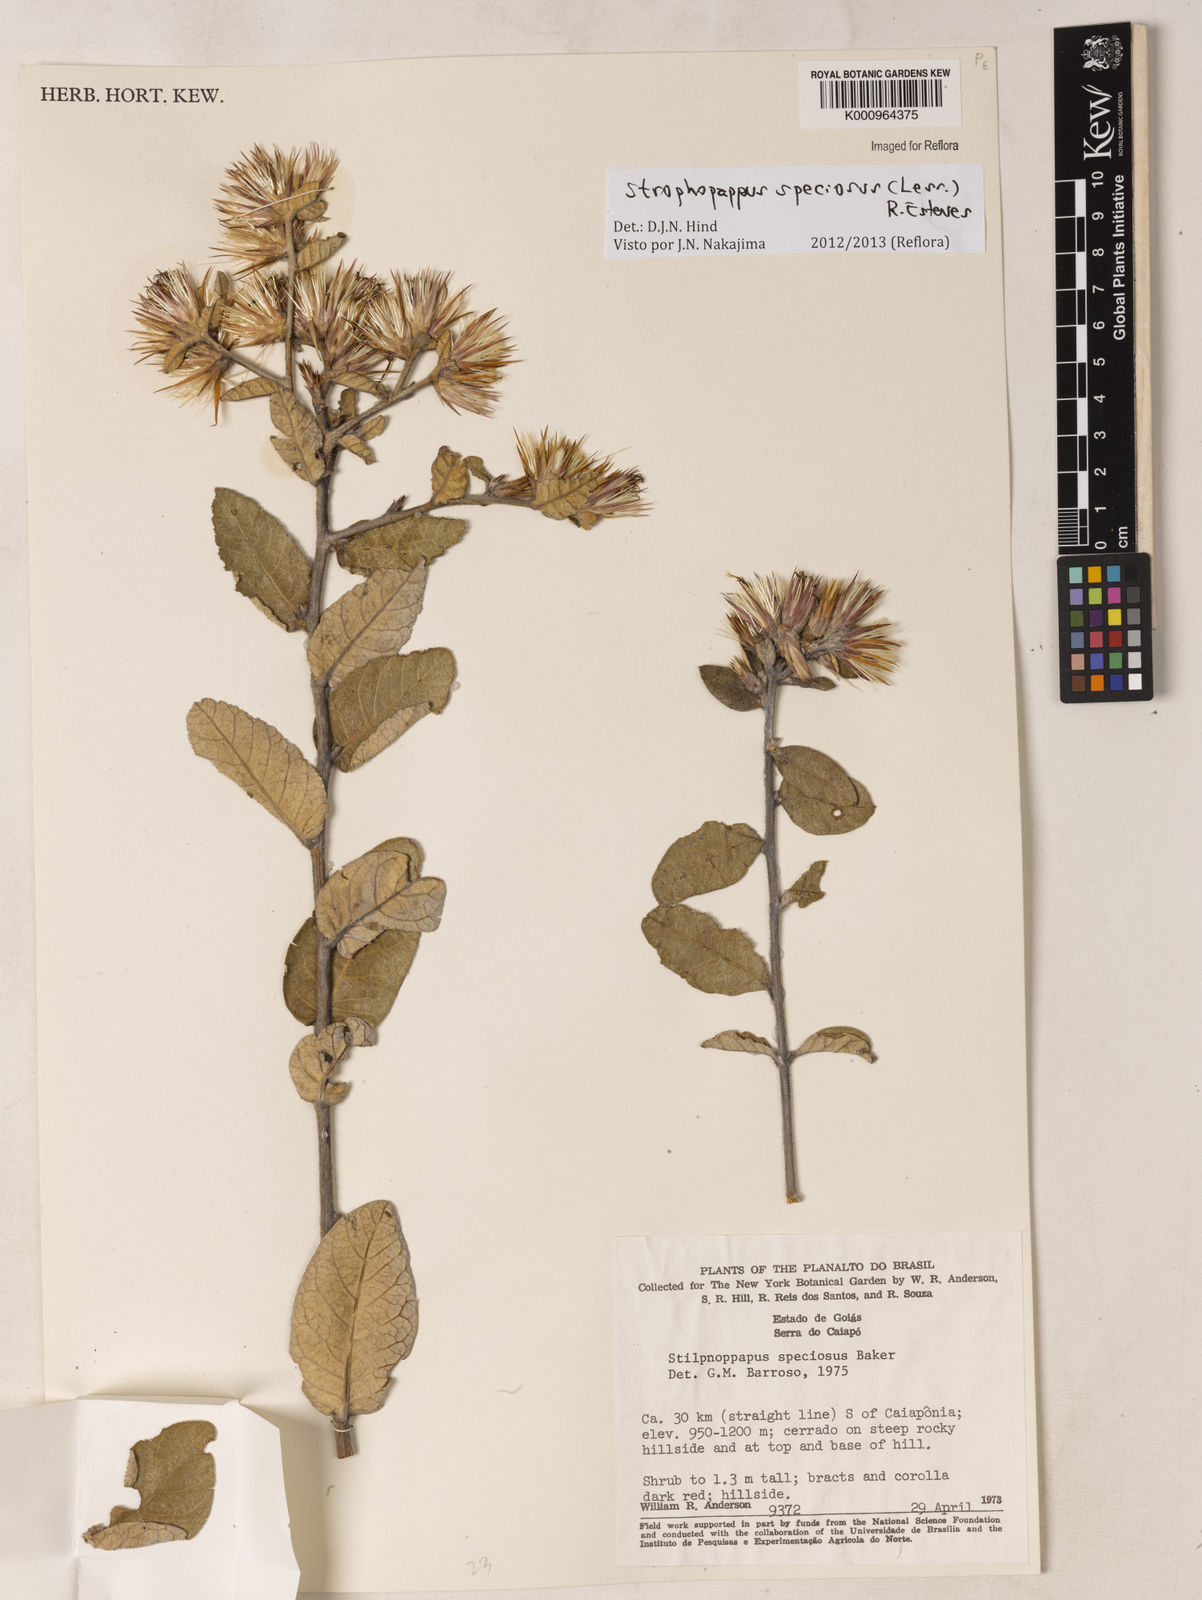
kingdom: Plantae
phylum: Tracheophyta
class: Magnoliopsida
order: Asterales
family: Asteraceae
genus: Stilpnopappus
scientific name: Stilpnopappus speciosus
